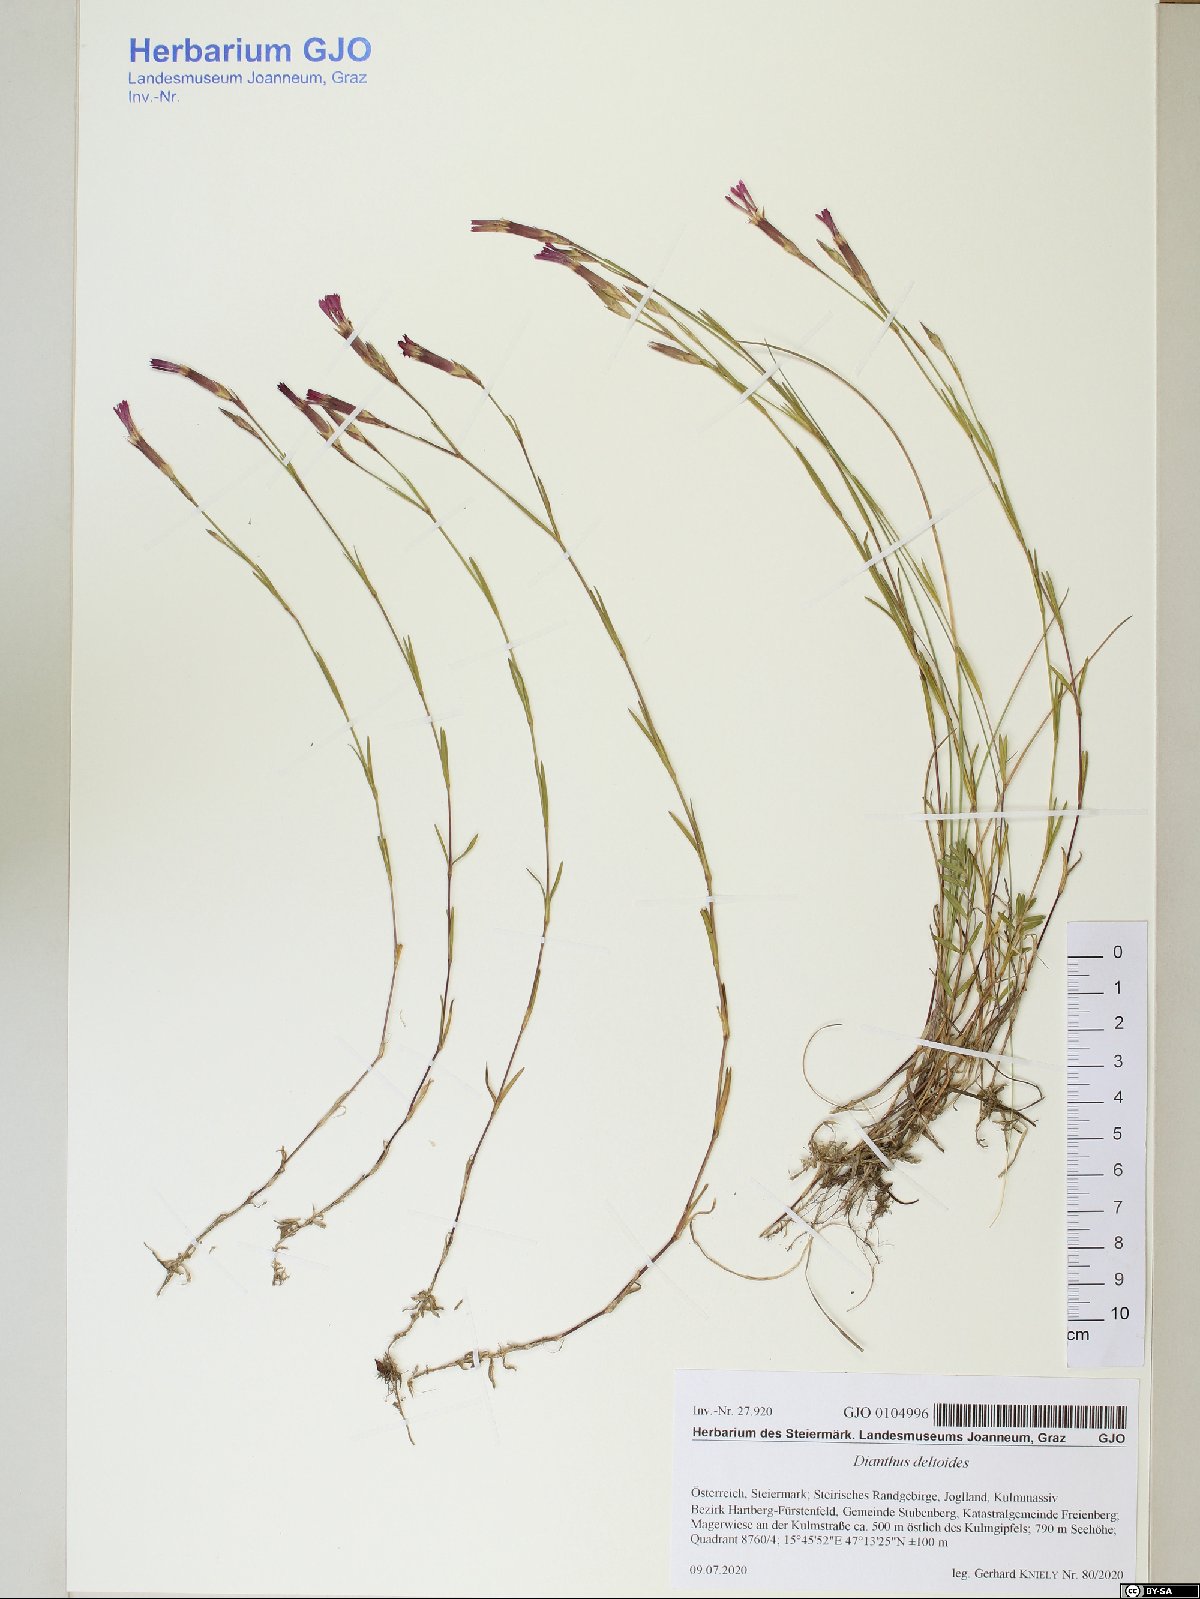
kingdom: Plantae
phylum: Tracheophyta
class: Magnoliopsida
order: Caryophyllales
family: Caryophyllaceae
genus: Dianthus
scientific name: Dianthus deltoides
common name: Maiden pink
